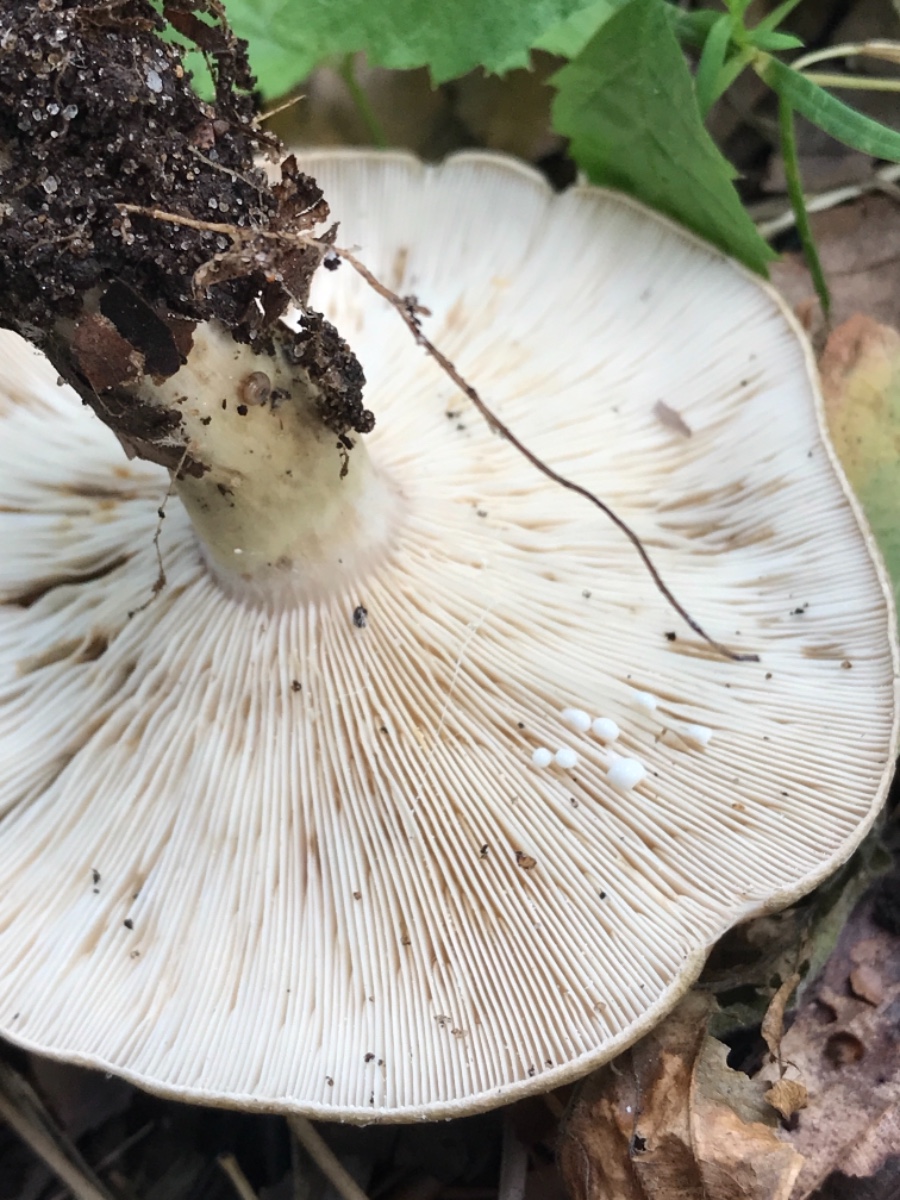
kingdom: Fungi
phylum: Basidiomycota
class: Agaricomycetes
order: Russulales
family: Russulaceae
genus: Lactarius
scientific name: Lactarius blennius
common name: dråbeplettet mælkehat
